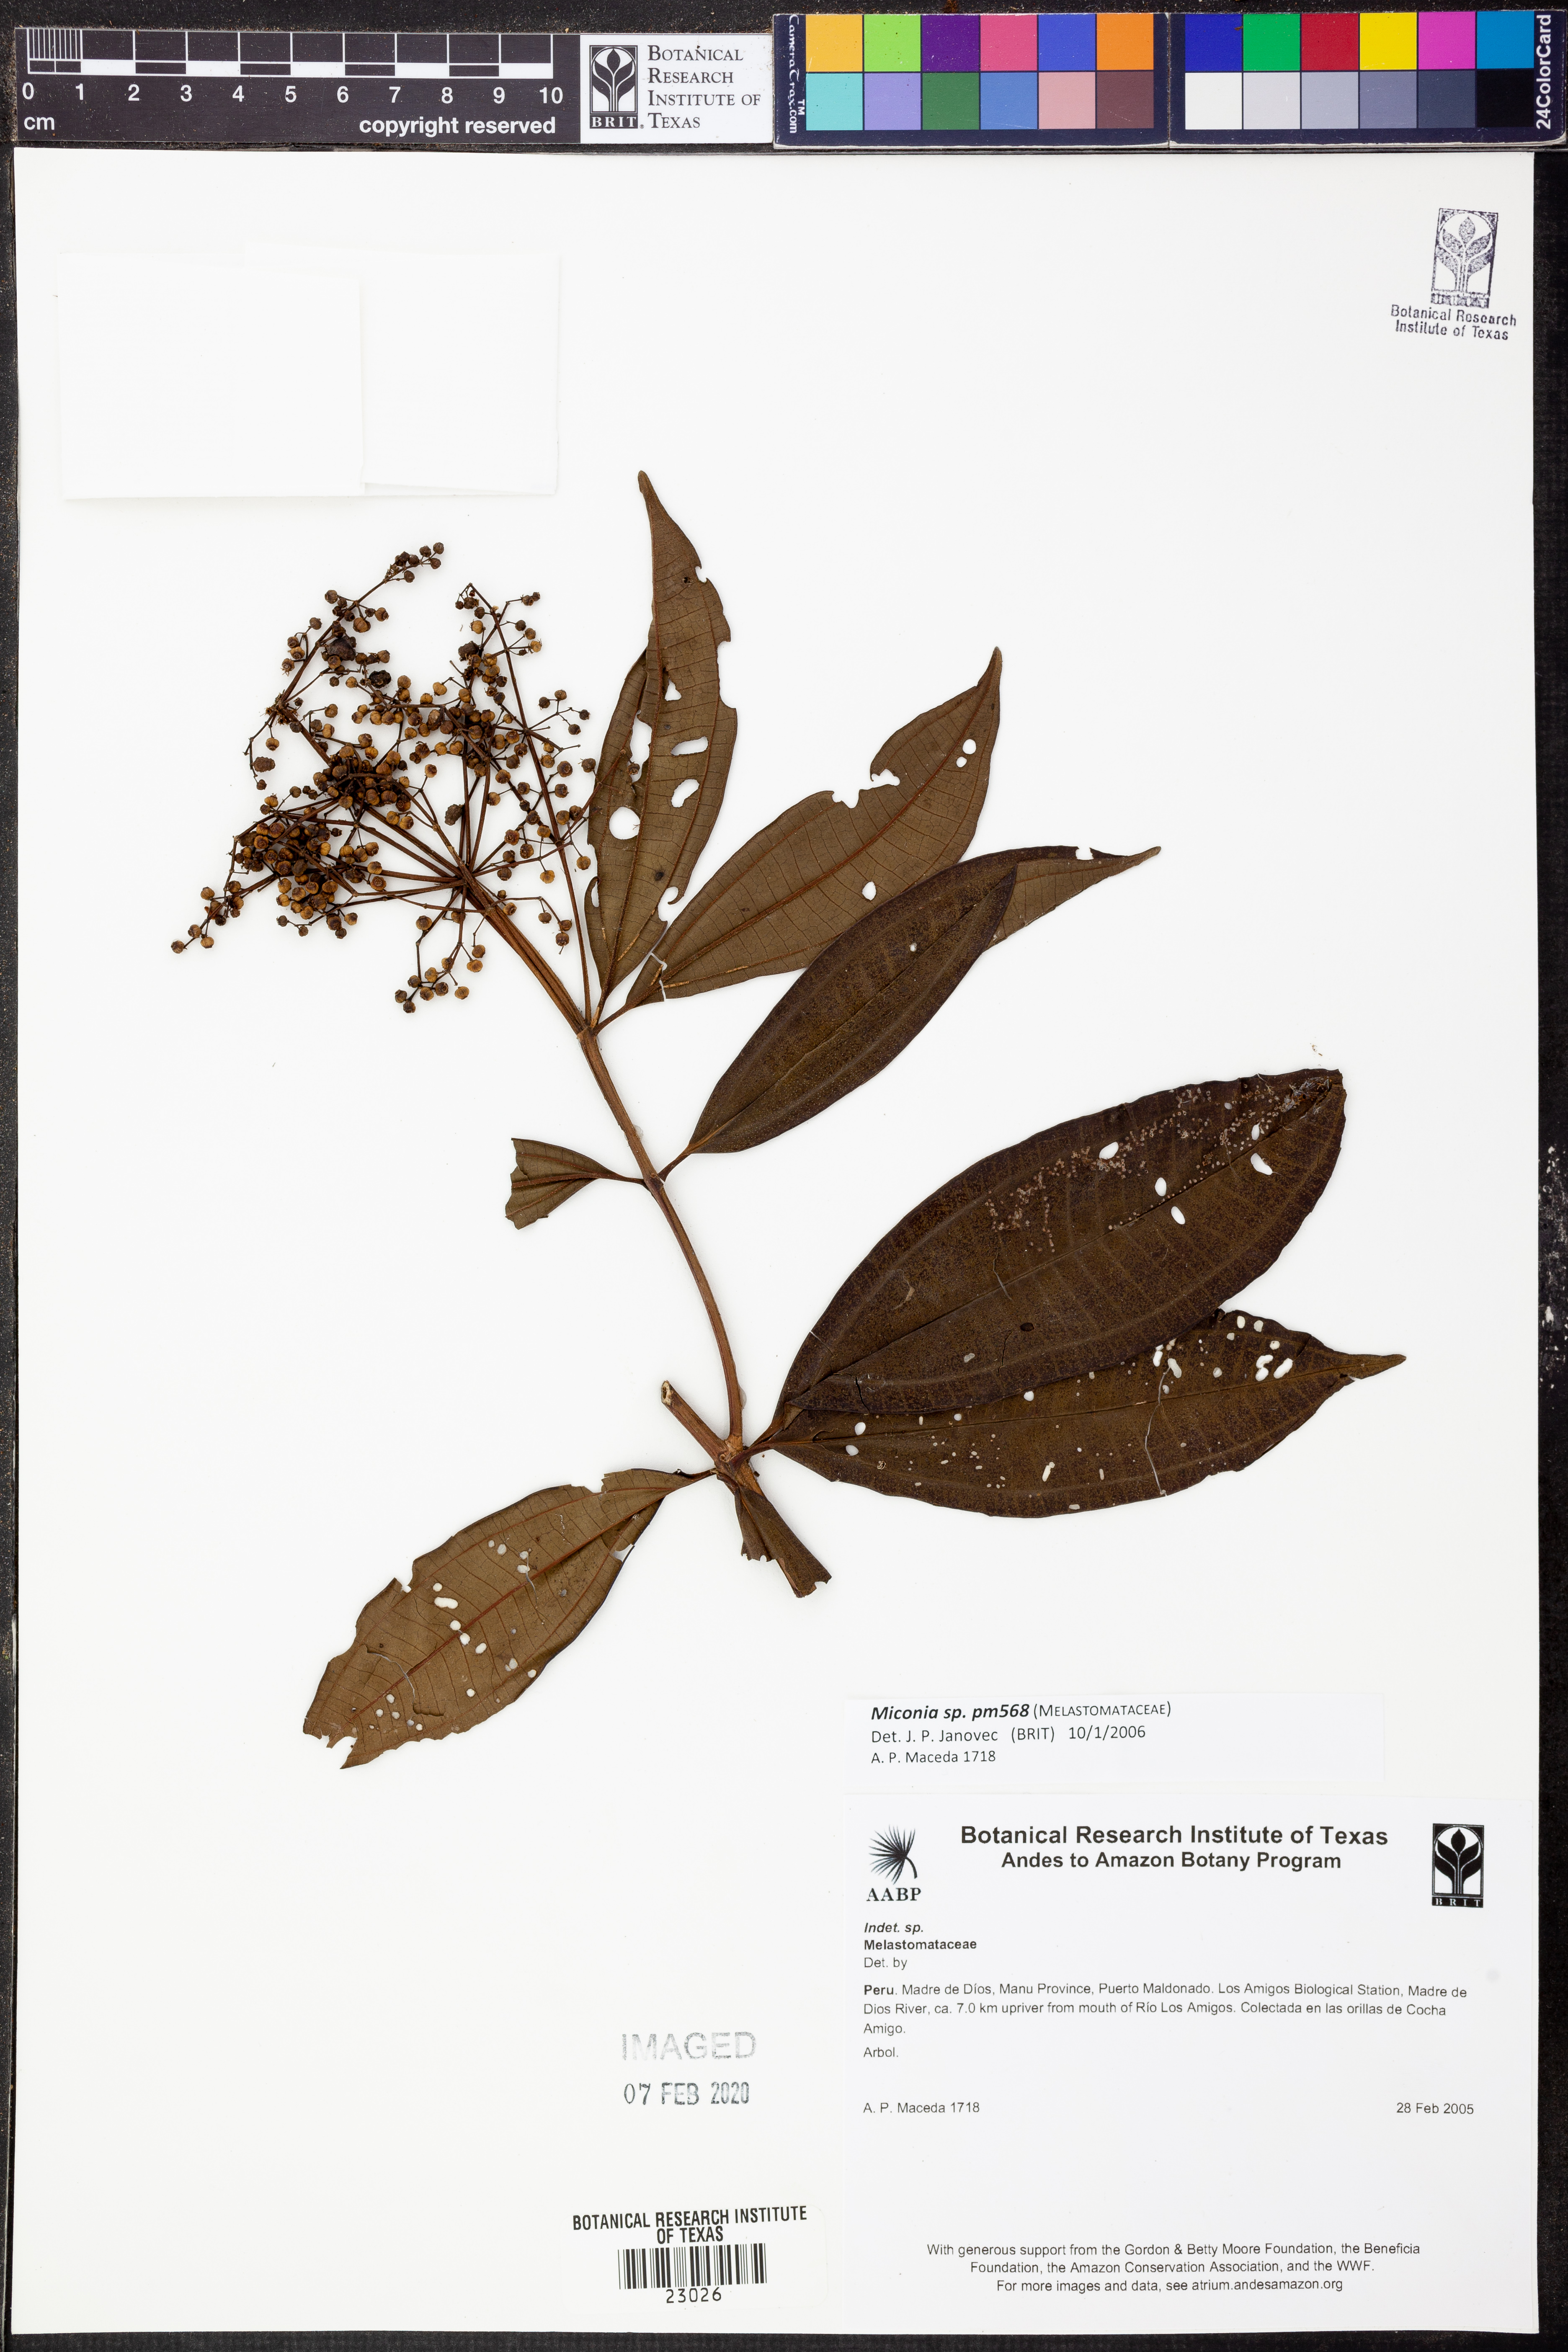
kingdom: Plantae
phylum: Tracheophyta
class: Magnoliopsida
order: Myrtales
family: Melastomataceae
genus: Miconia
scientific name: Miconia
